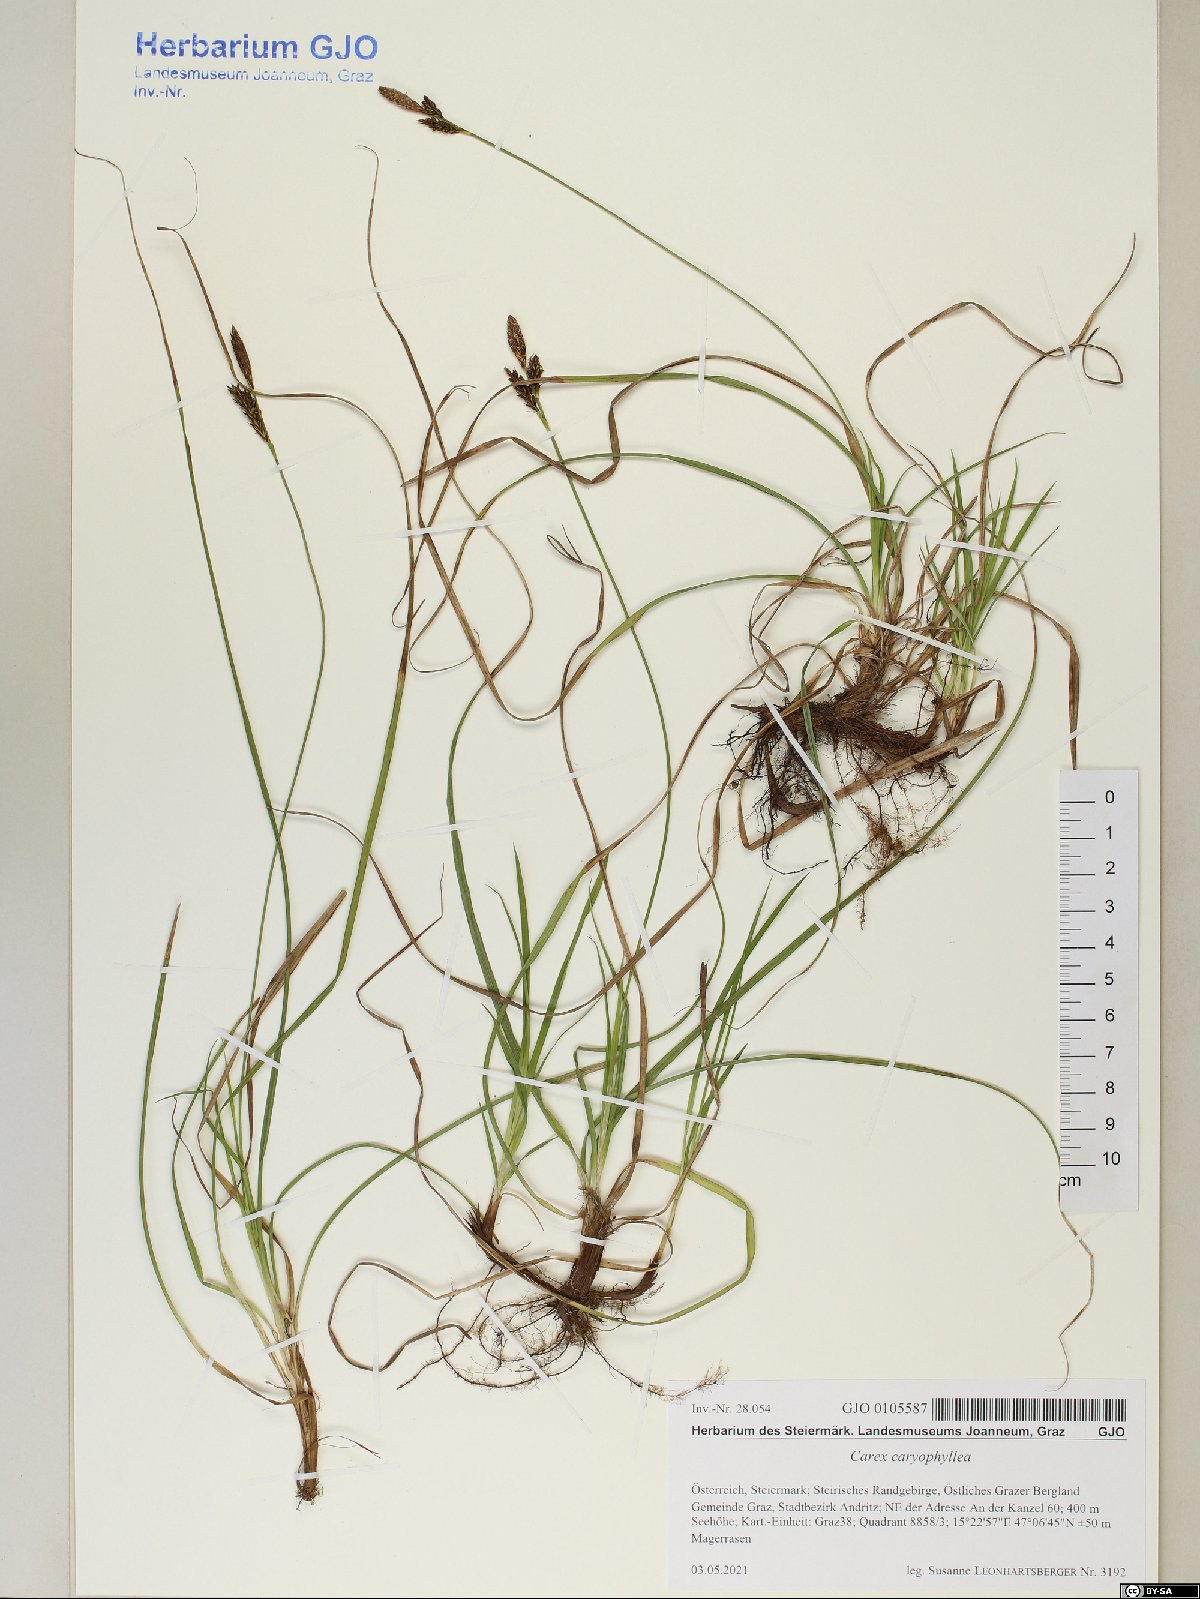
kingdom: Plantae
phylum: Tracheophyta
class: Liliopsida
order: Poales
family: Cyperaceae
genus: Carex
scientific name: Carex caryophyllea
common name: Spring sedge
